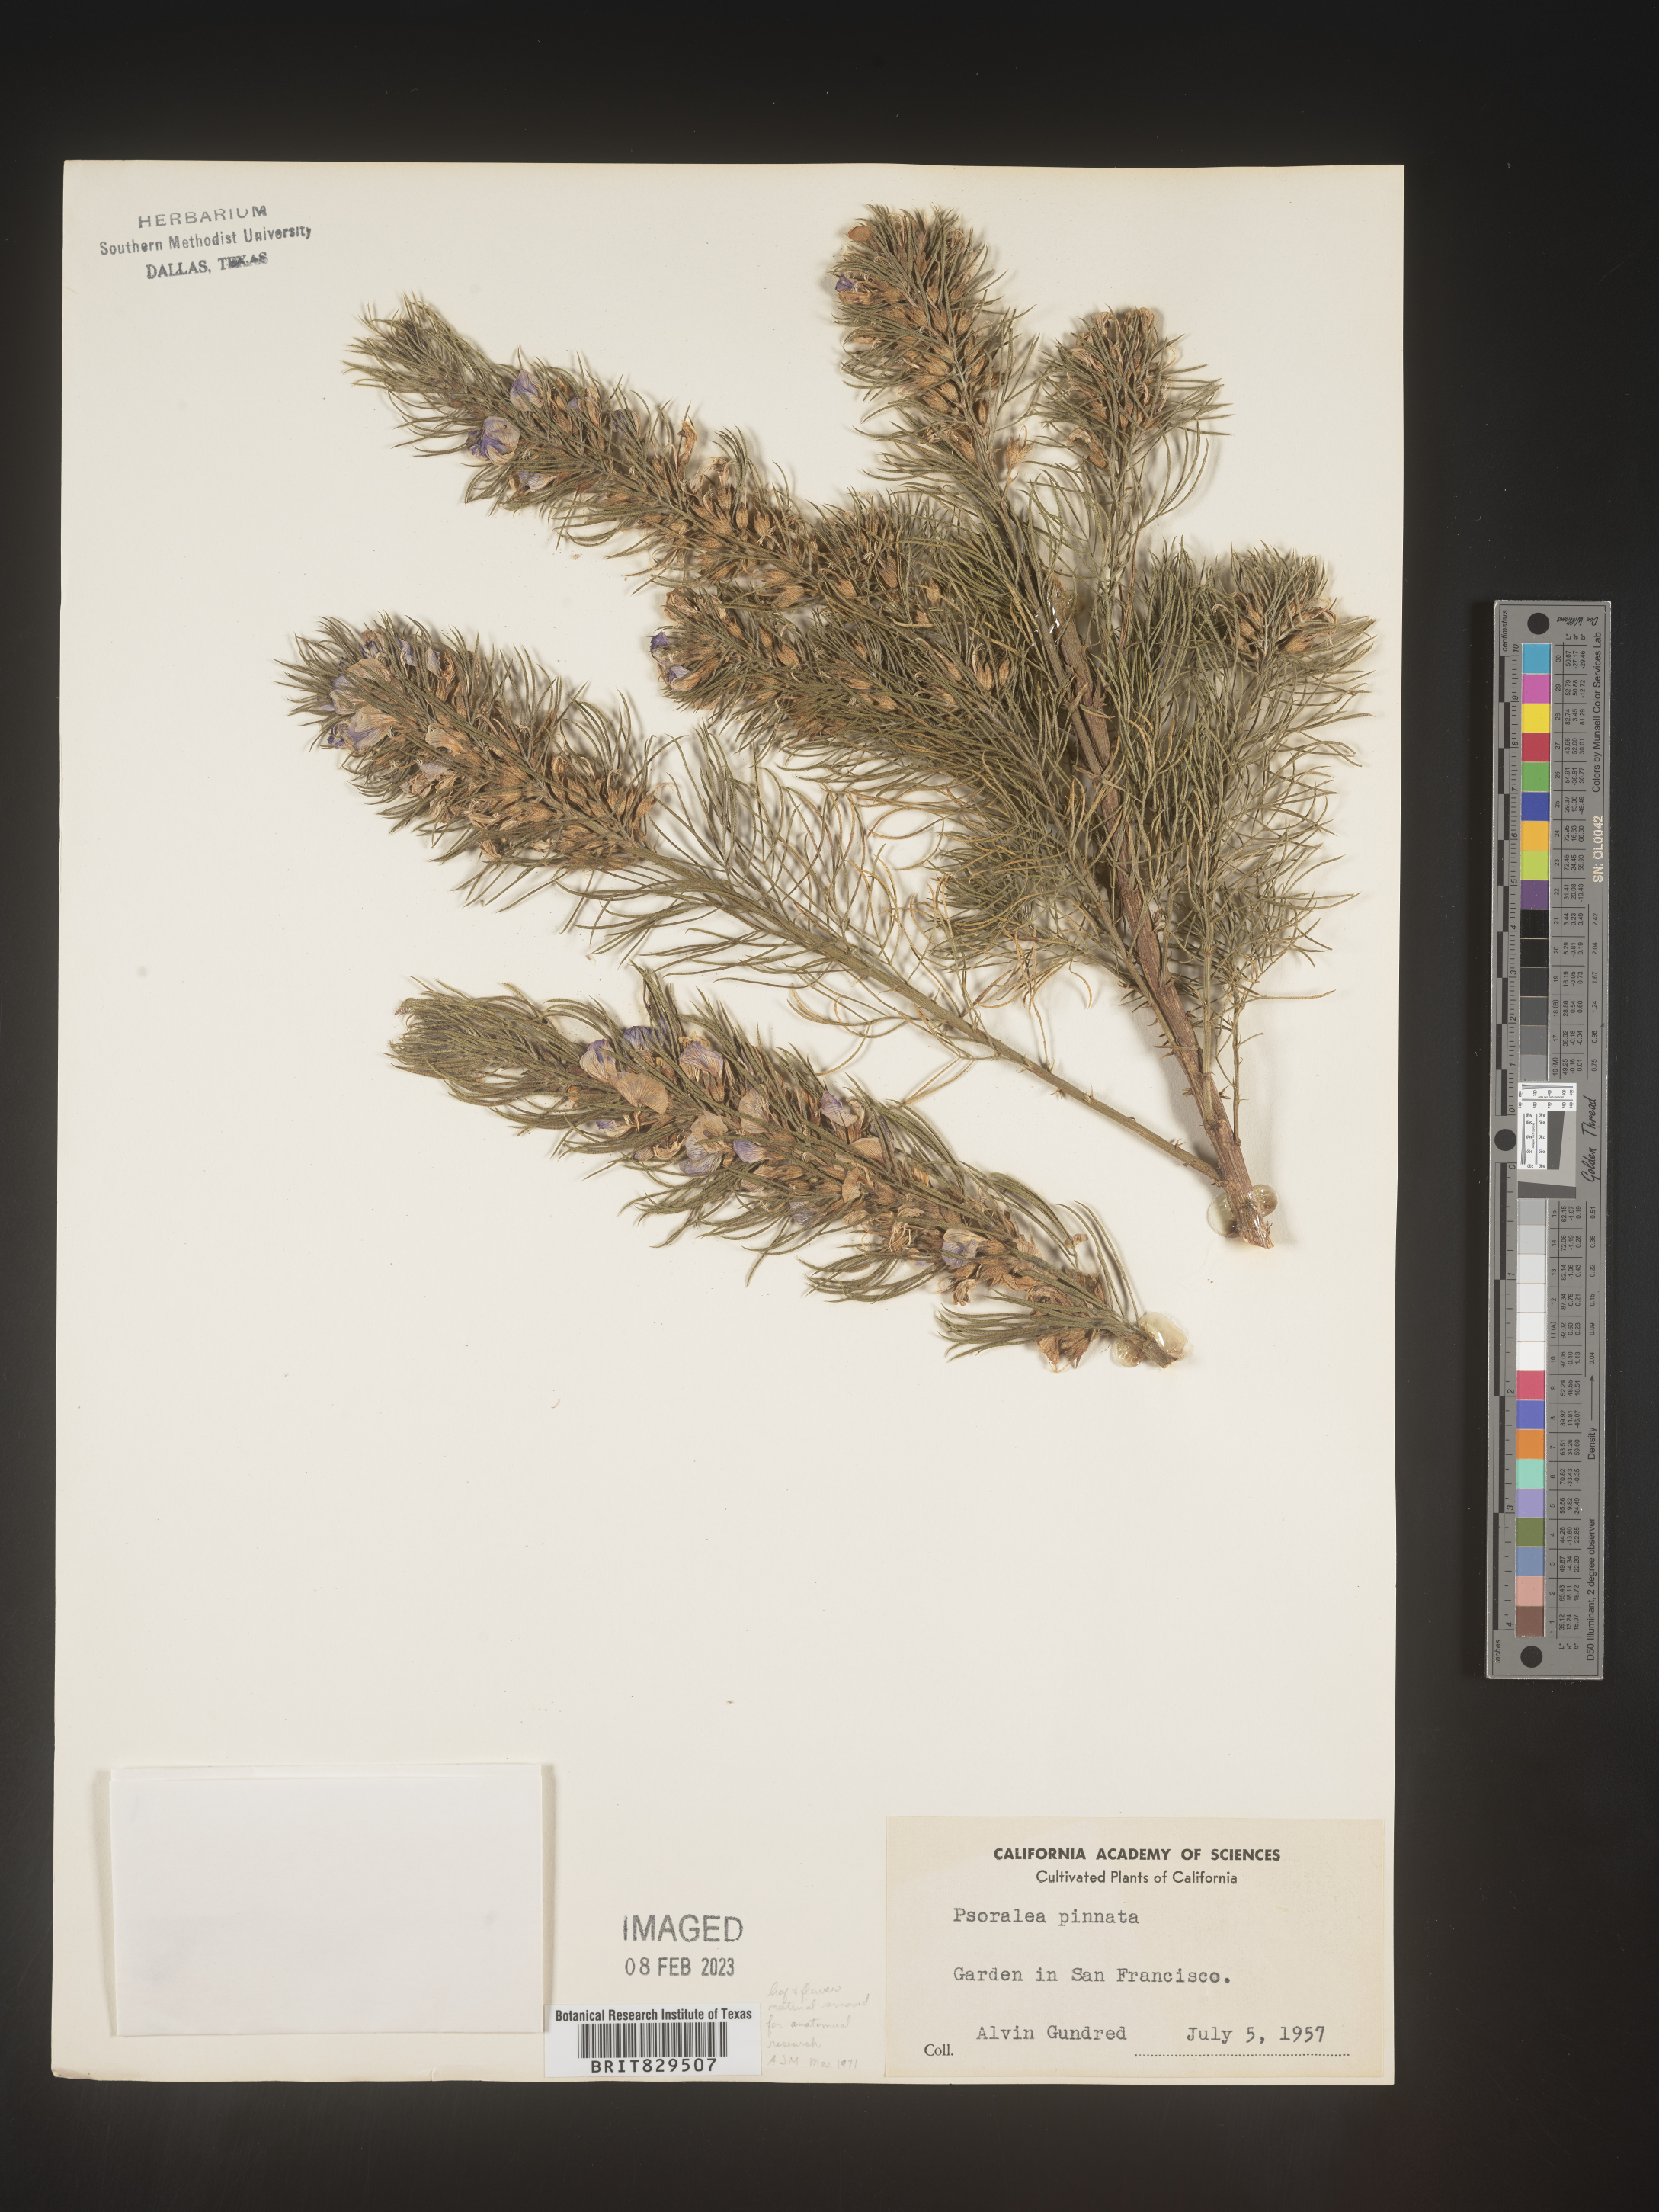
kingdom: Plantae
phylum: Tracheophyta
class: Magnoliopsida
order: Fabales
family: Fabaceae
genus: Psoralea
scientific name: Psoralea
